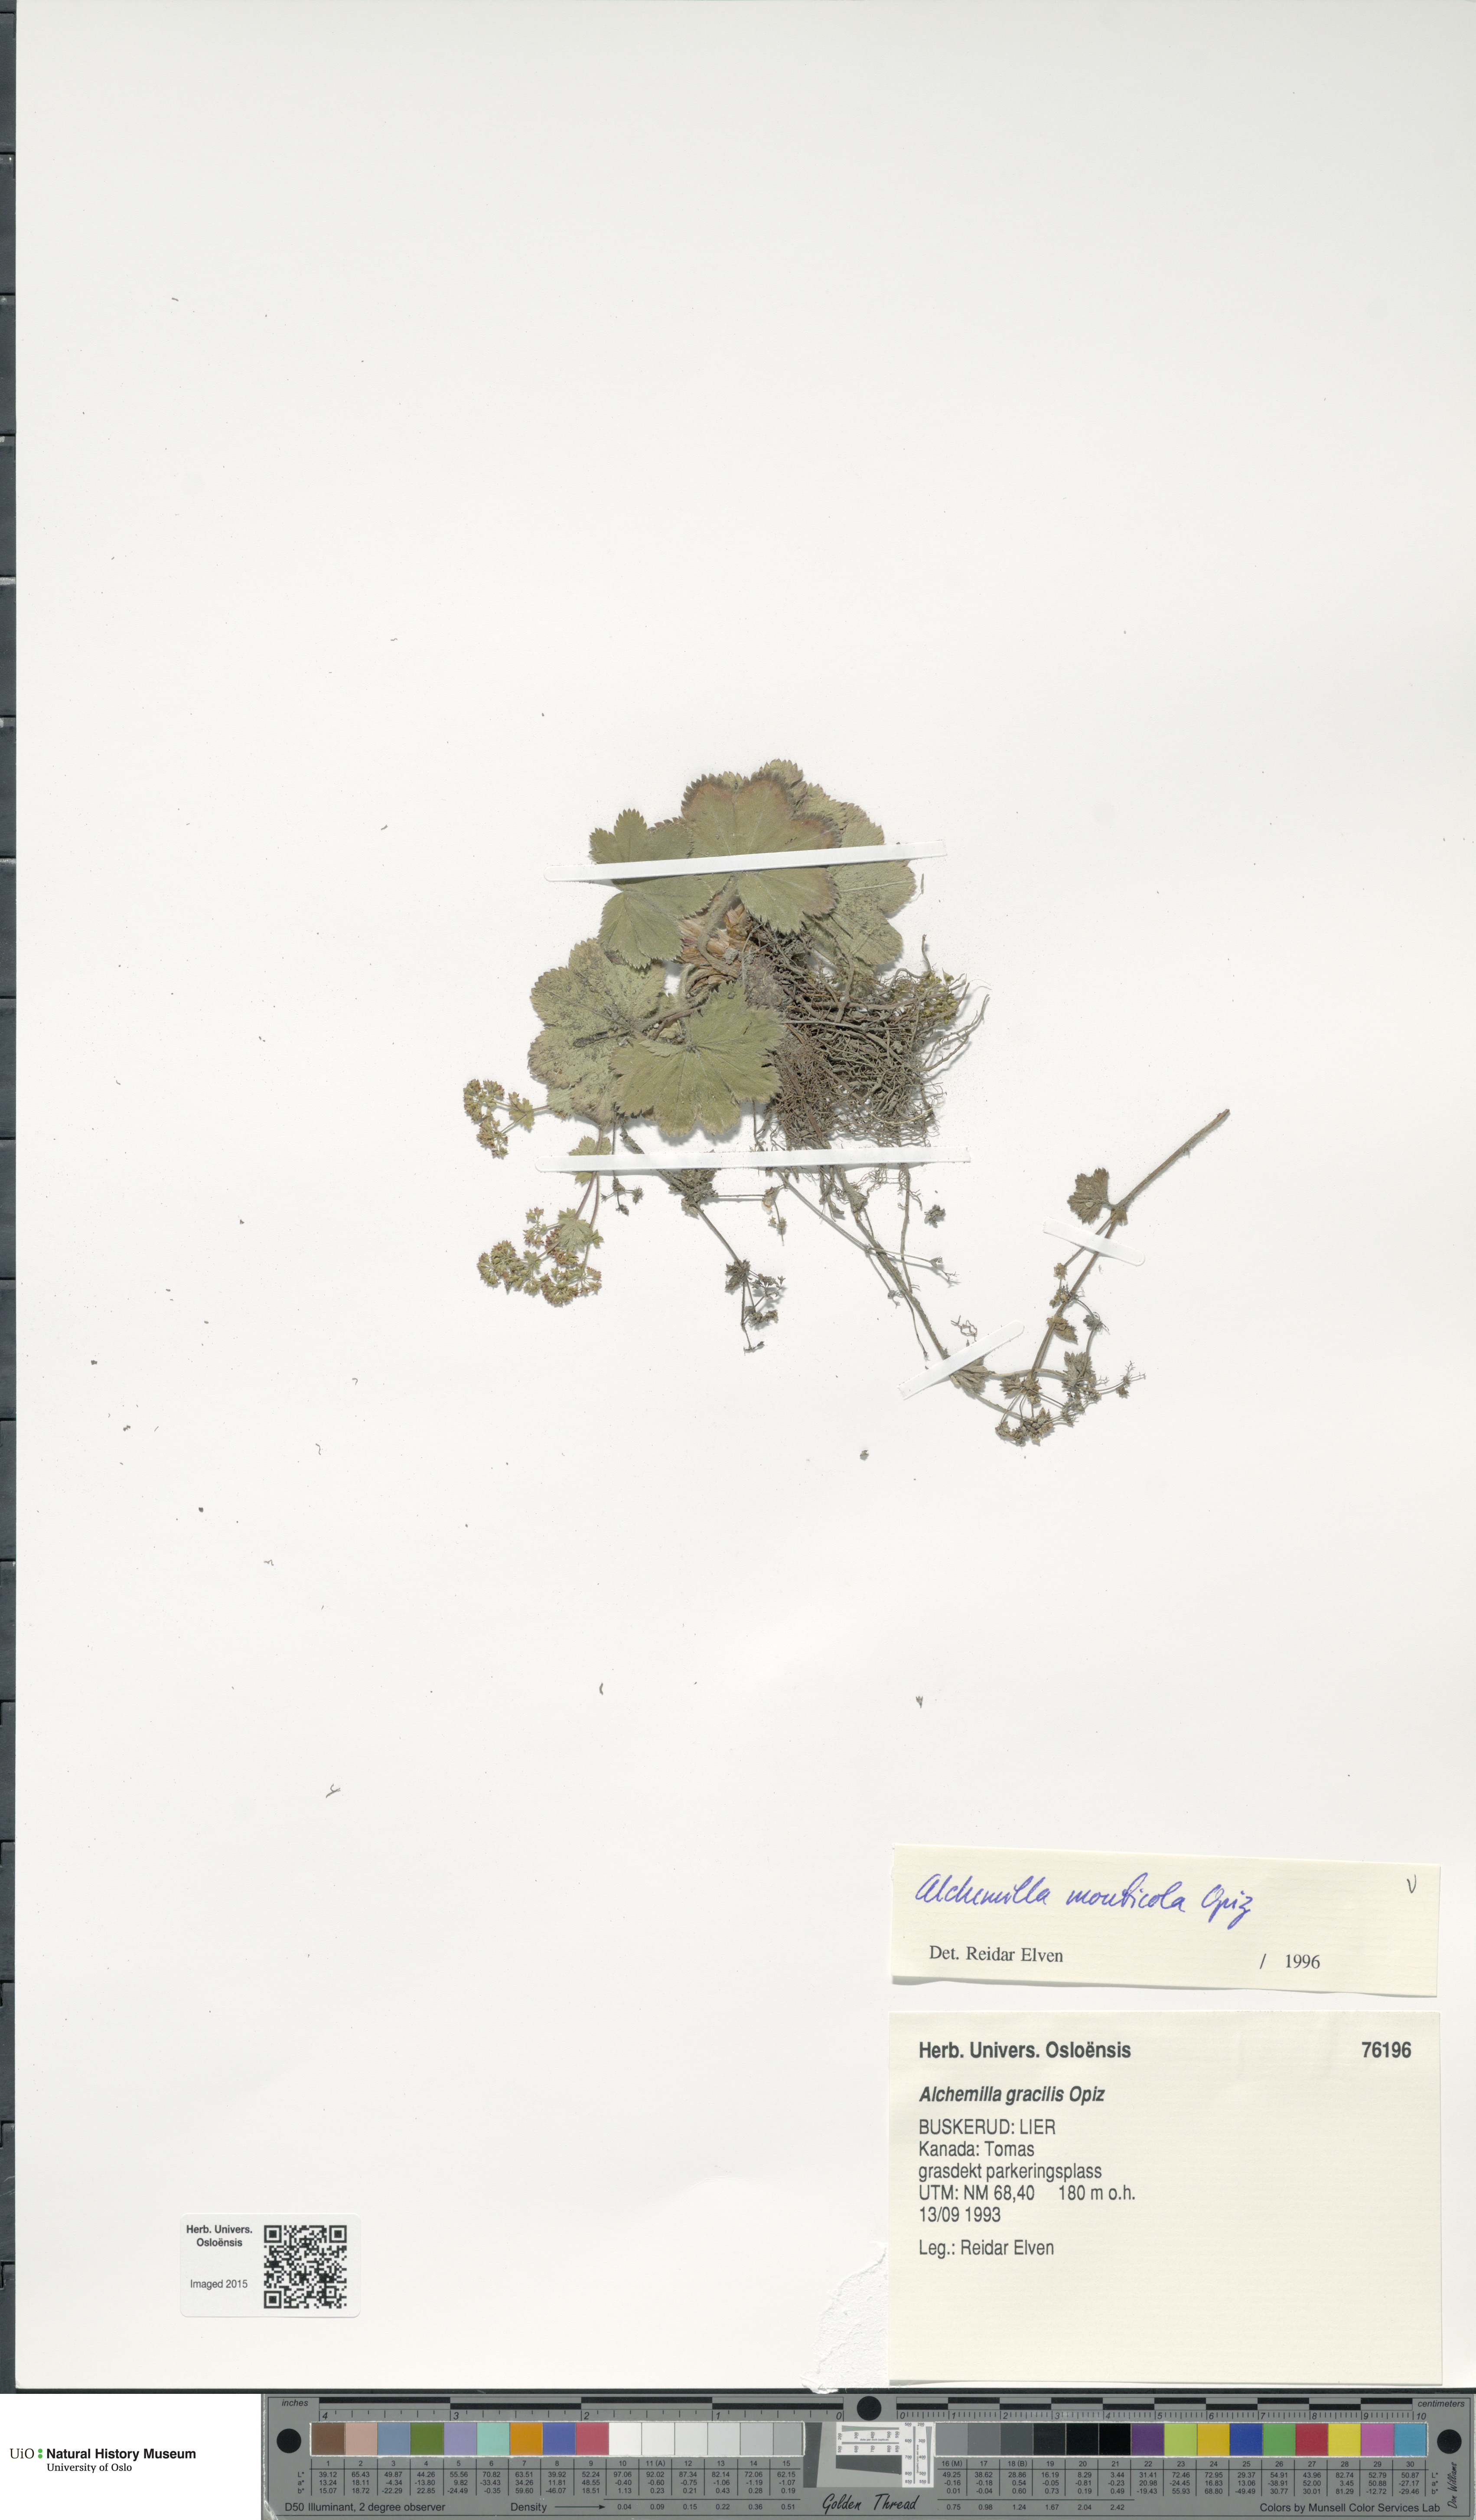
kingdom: Plantae
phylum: Tracheophyta
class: Magnoliopsida
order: Rosales
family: Rosaceae
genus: Alchemilla
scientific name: Alchemilla monticola
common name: Hairy lady's mantle
